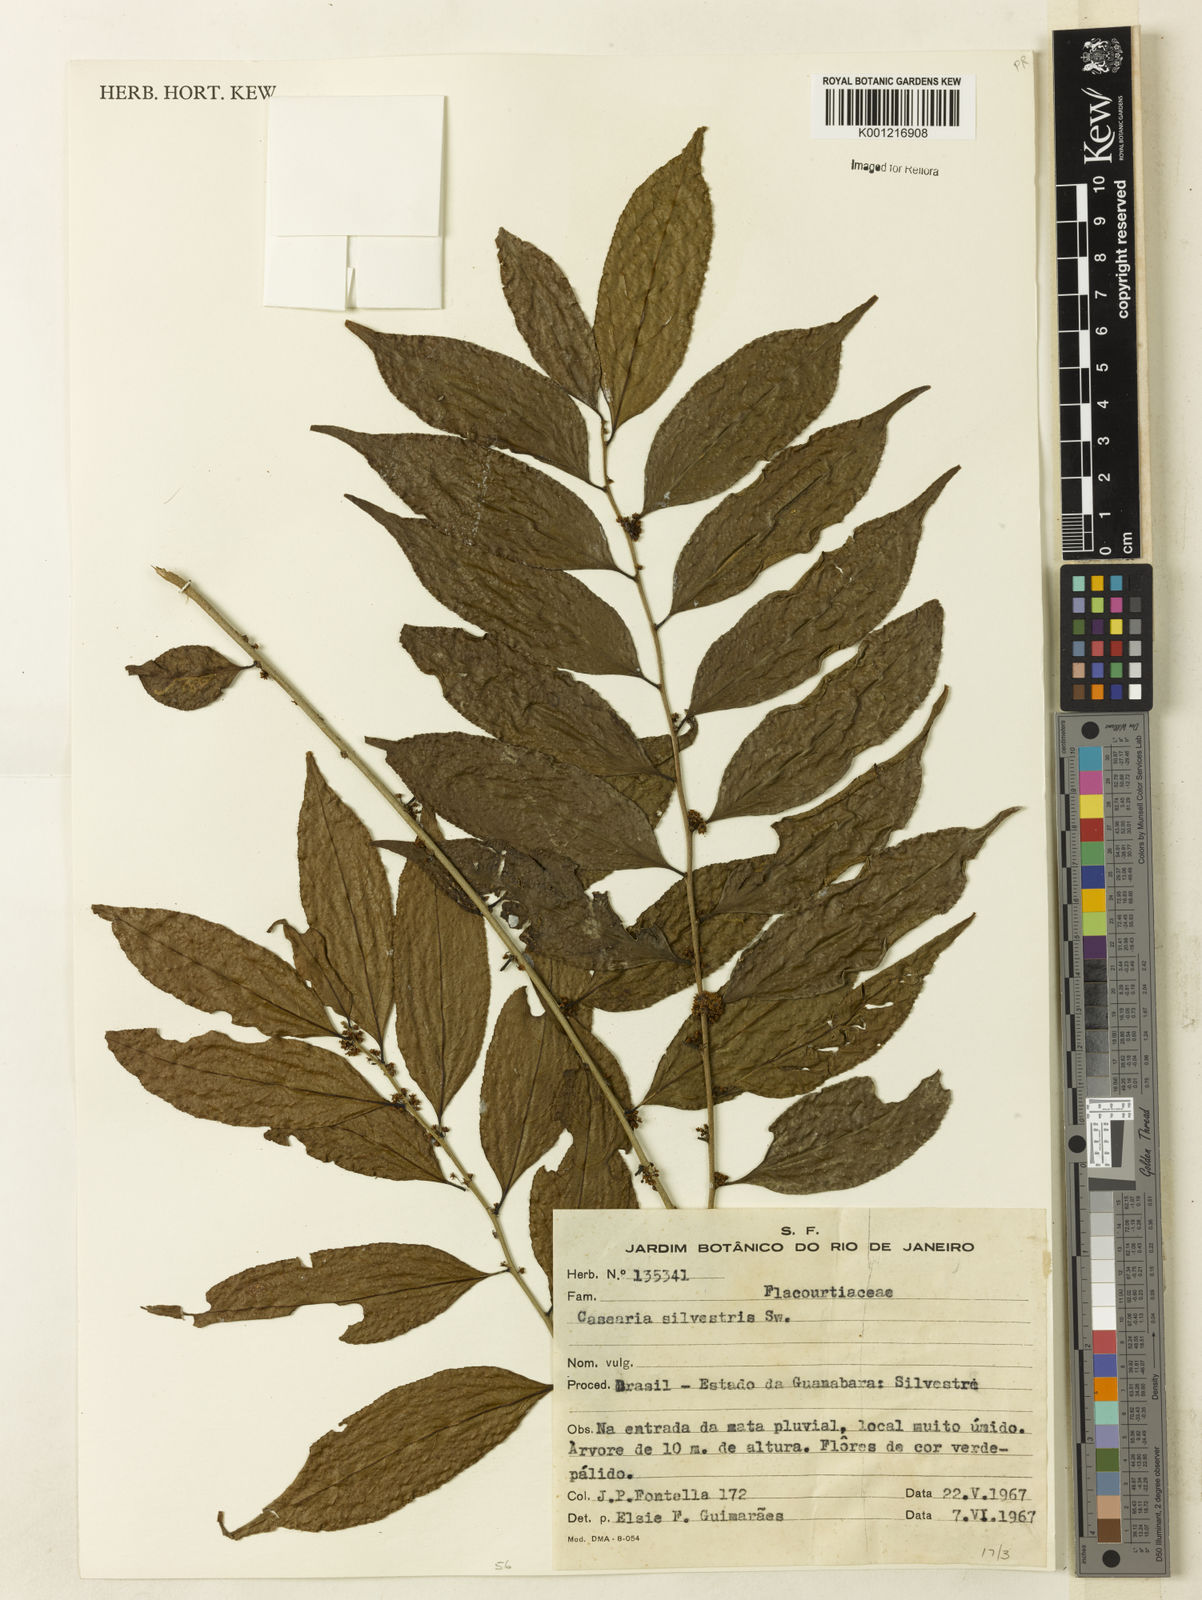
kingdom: Plantae
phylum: Tracheophyta
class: Magnoliopsida
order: Malpighiales
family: Salicaceae
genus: Casearia
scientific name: Casearia sylvestris
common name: Wild sage
